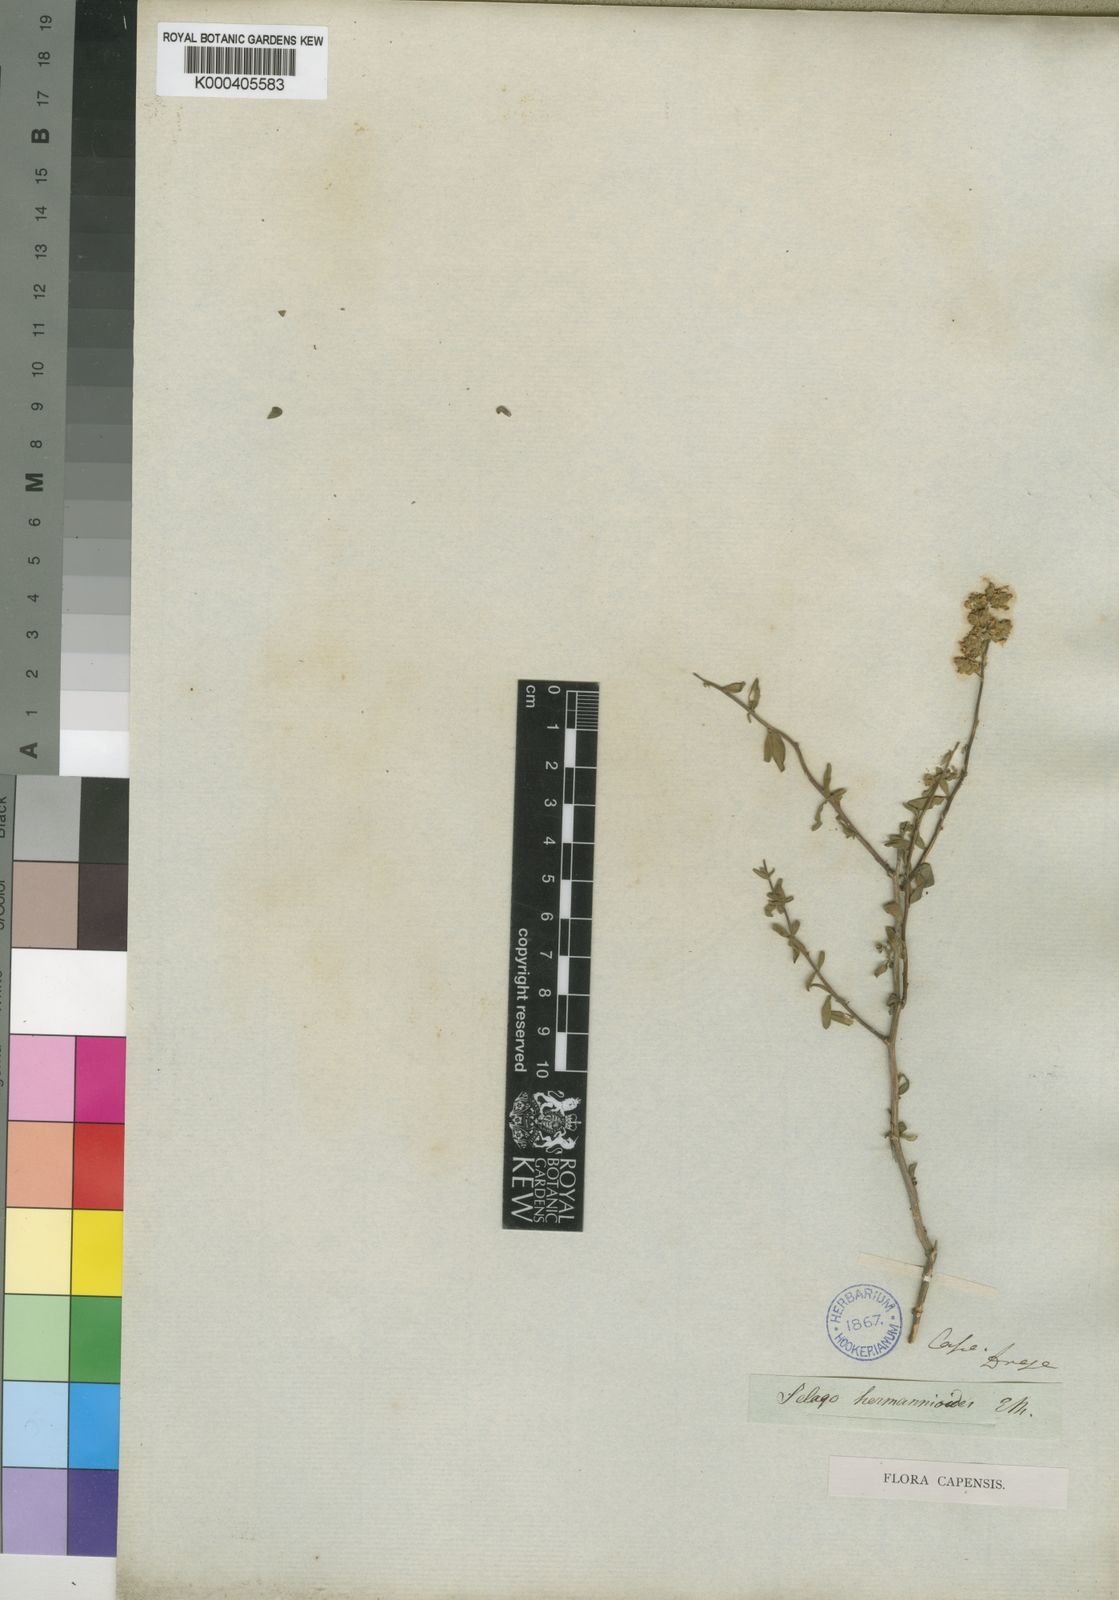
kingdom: Plantae
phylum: Tracheophyta
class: Magnoliopsida
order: Lamiales
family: Scrophulariaceae
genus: Selago
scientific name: Selago hermannioides
